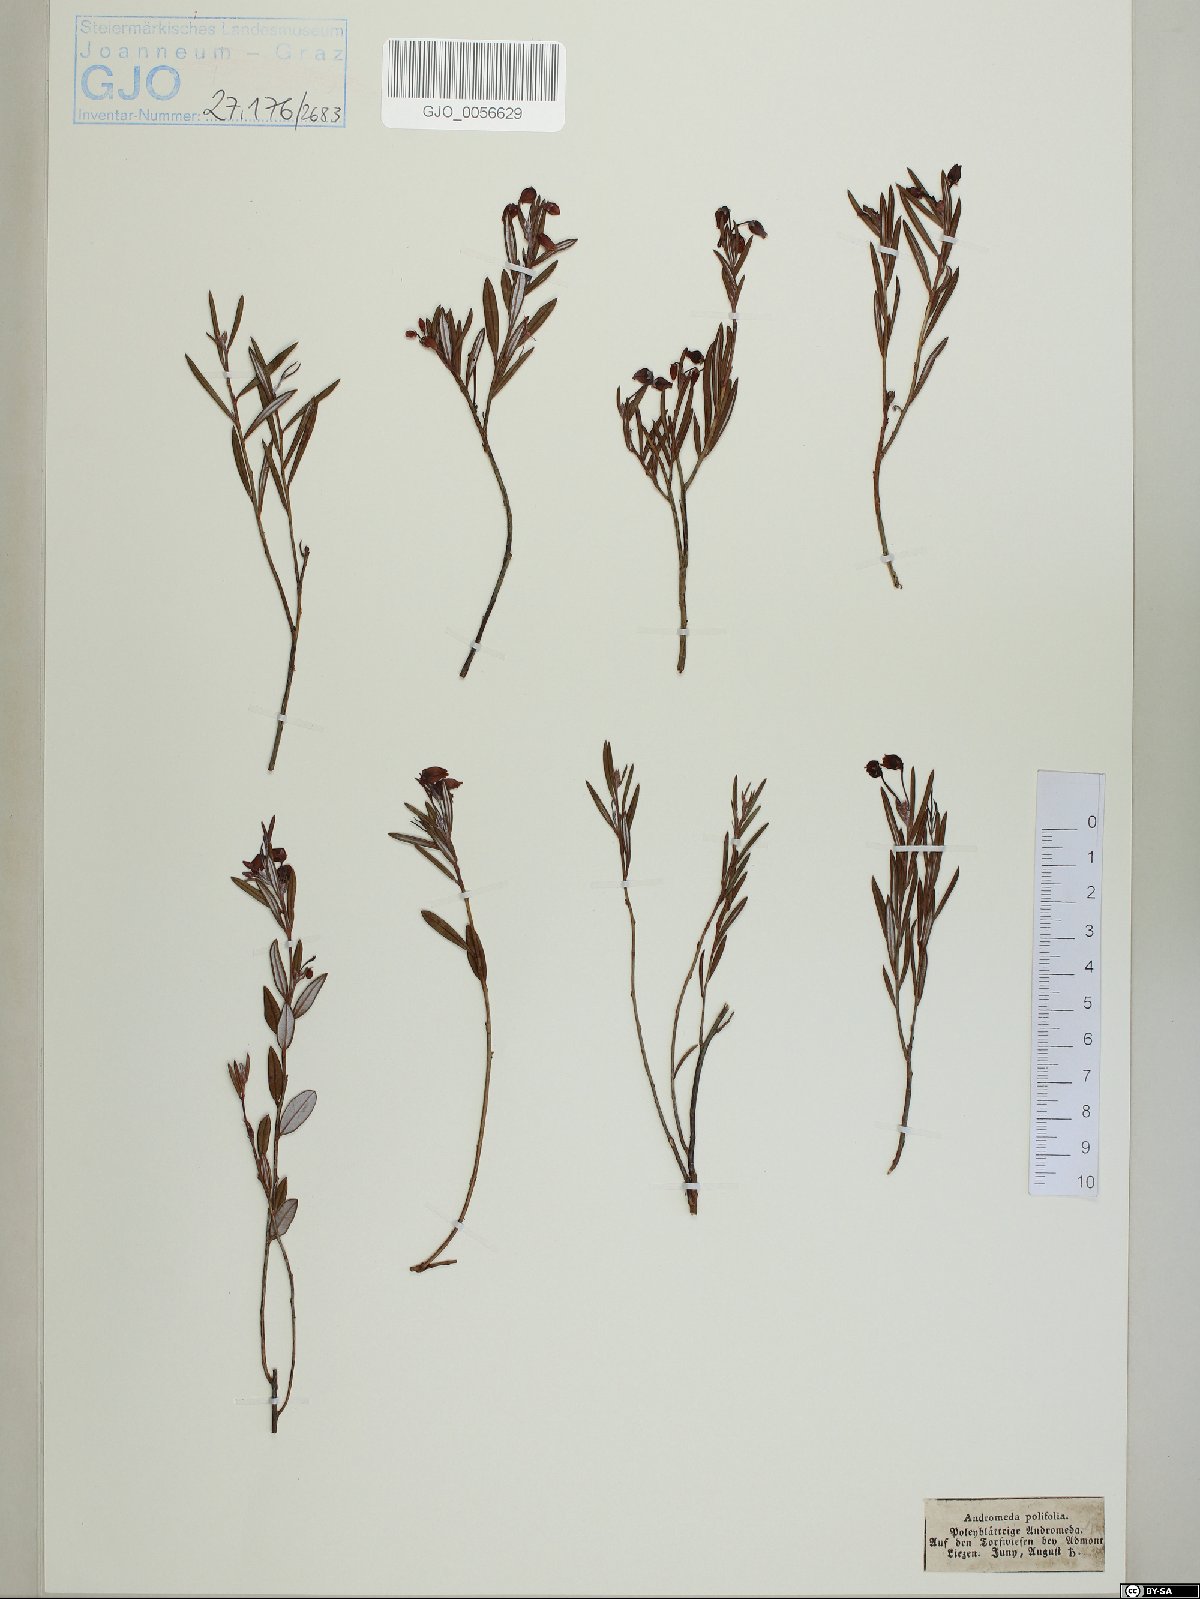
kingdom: Plantae
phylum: Tracheophyta
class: Magnoliopsida
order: Ericales
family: Ericaceae
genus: Andromeda
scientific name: Andromeda polifolia
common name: Bog-rosemary
